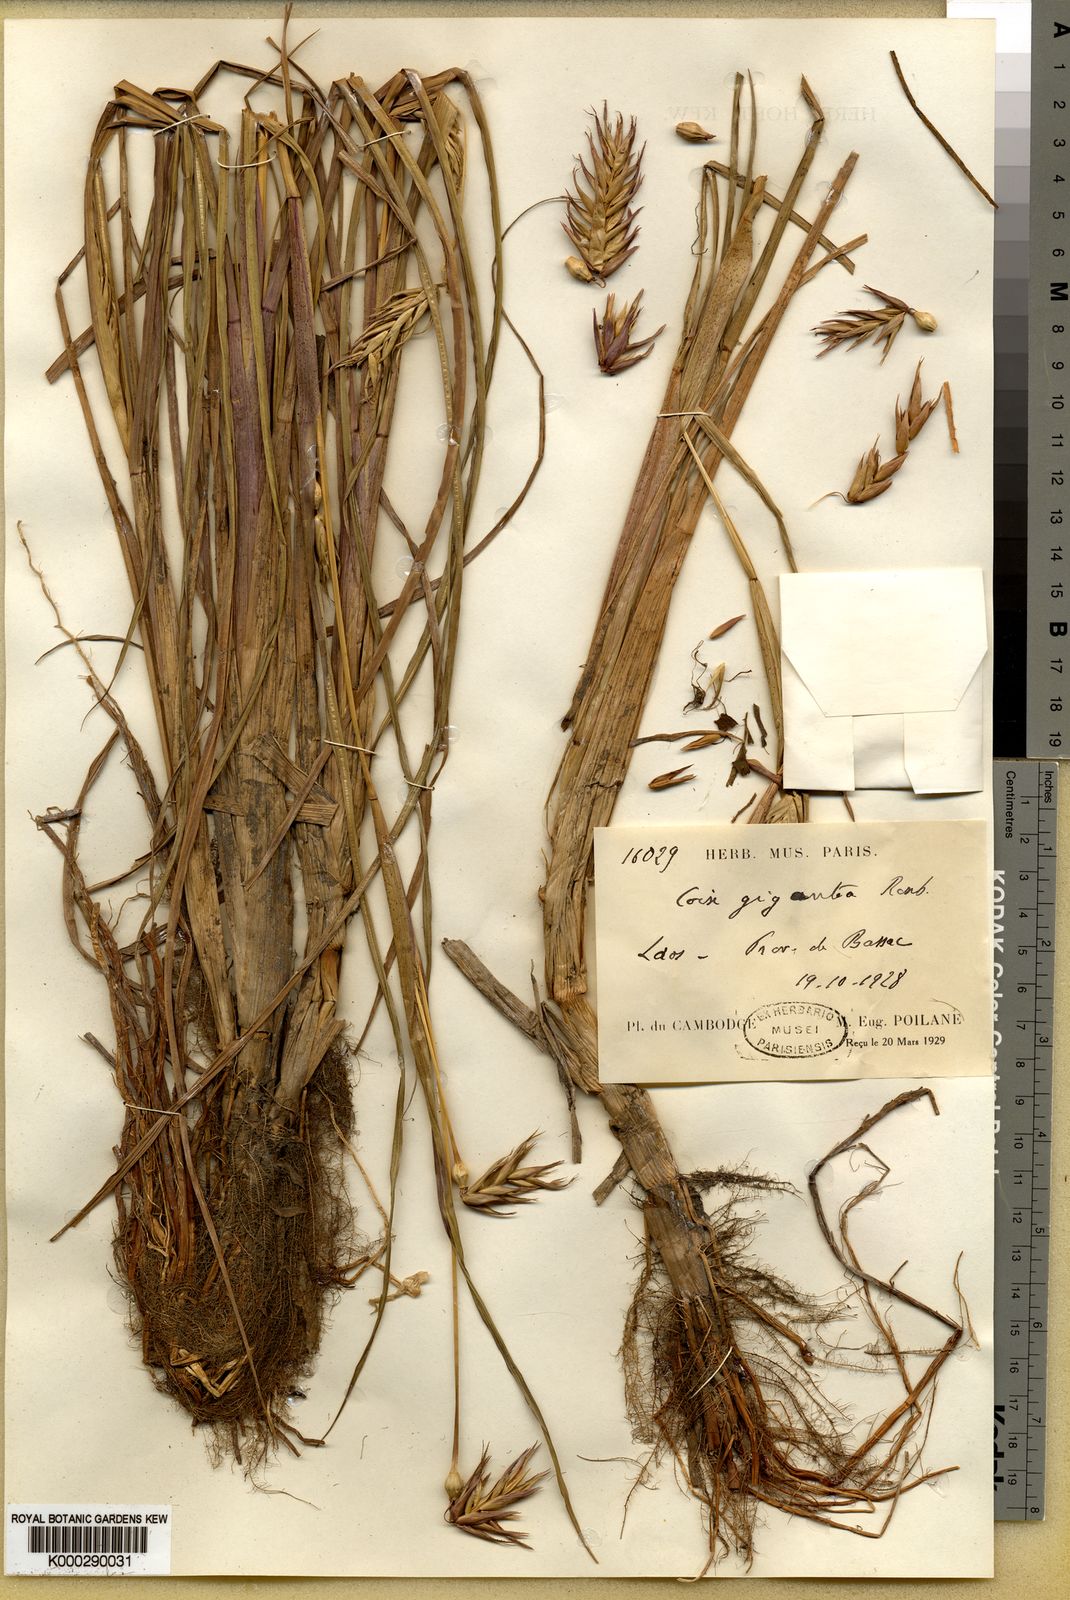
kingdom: Plantae
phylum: Tracheophyta
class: Liliopsida
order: Poales
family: Poaceae
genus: Coix
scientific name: Coix aquatica
